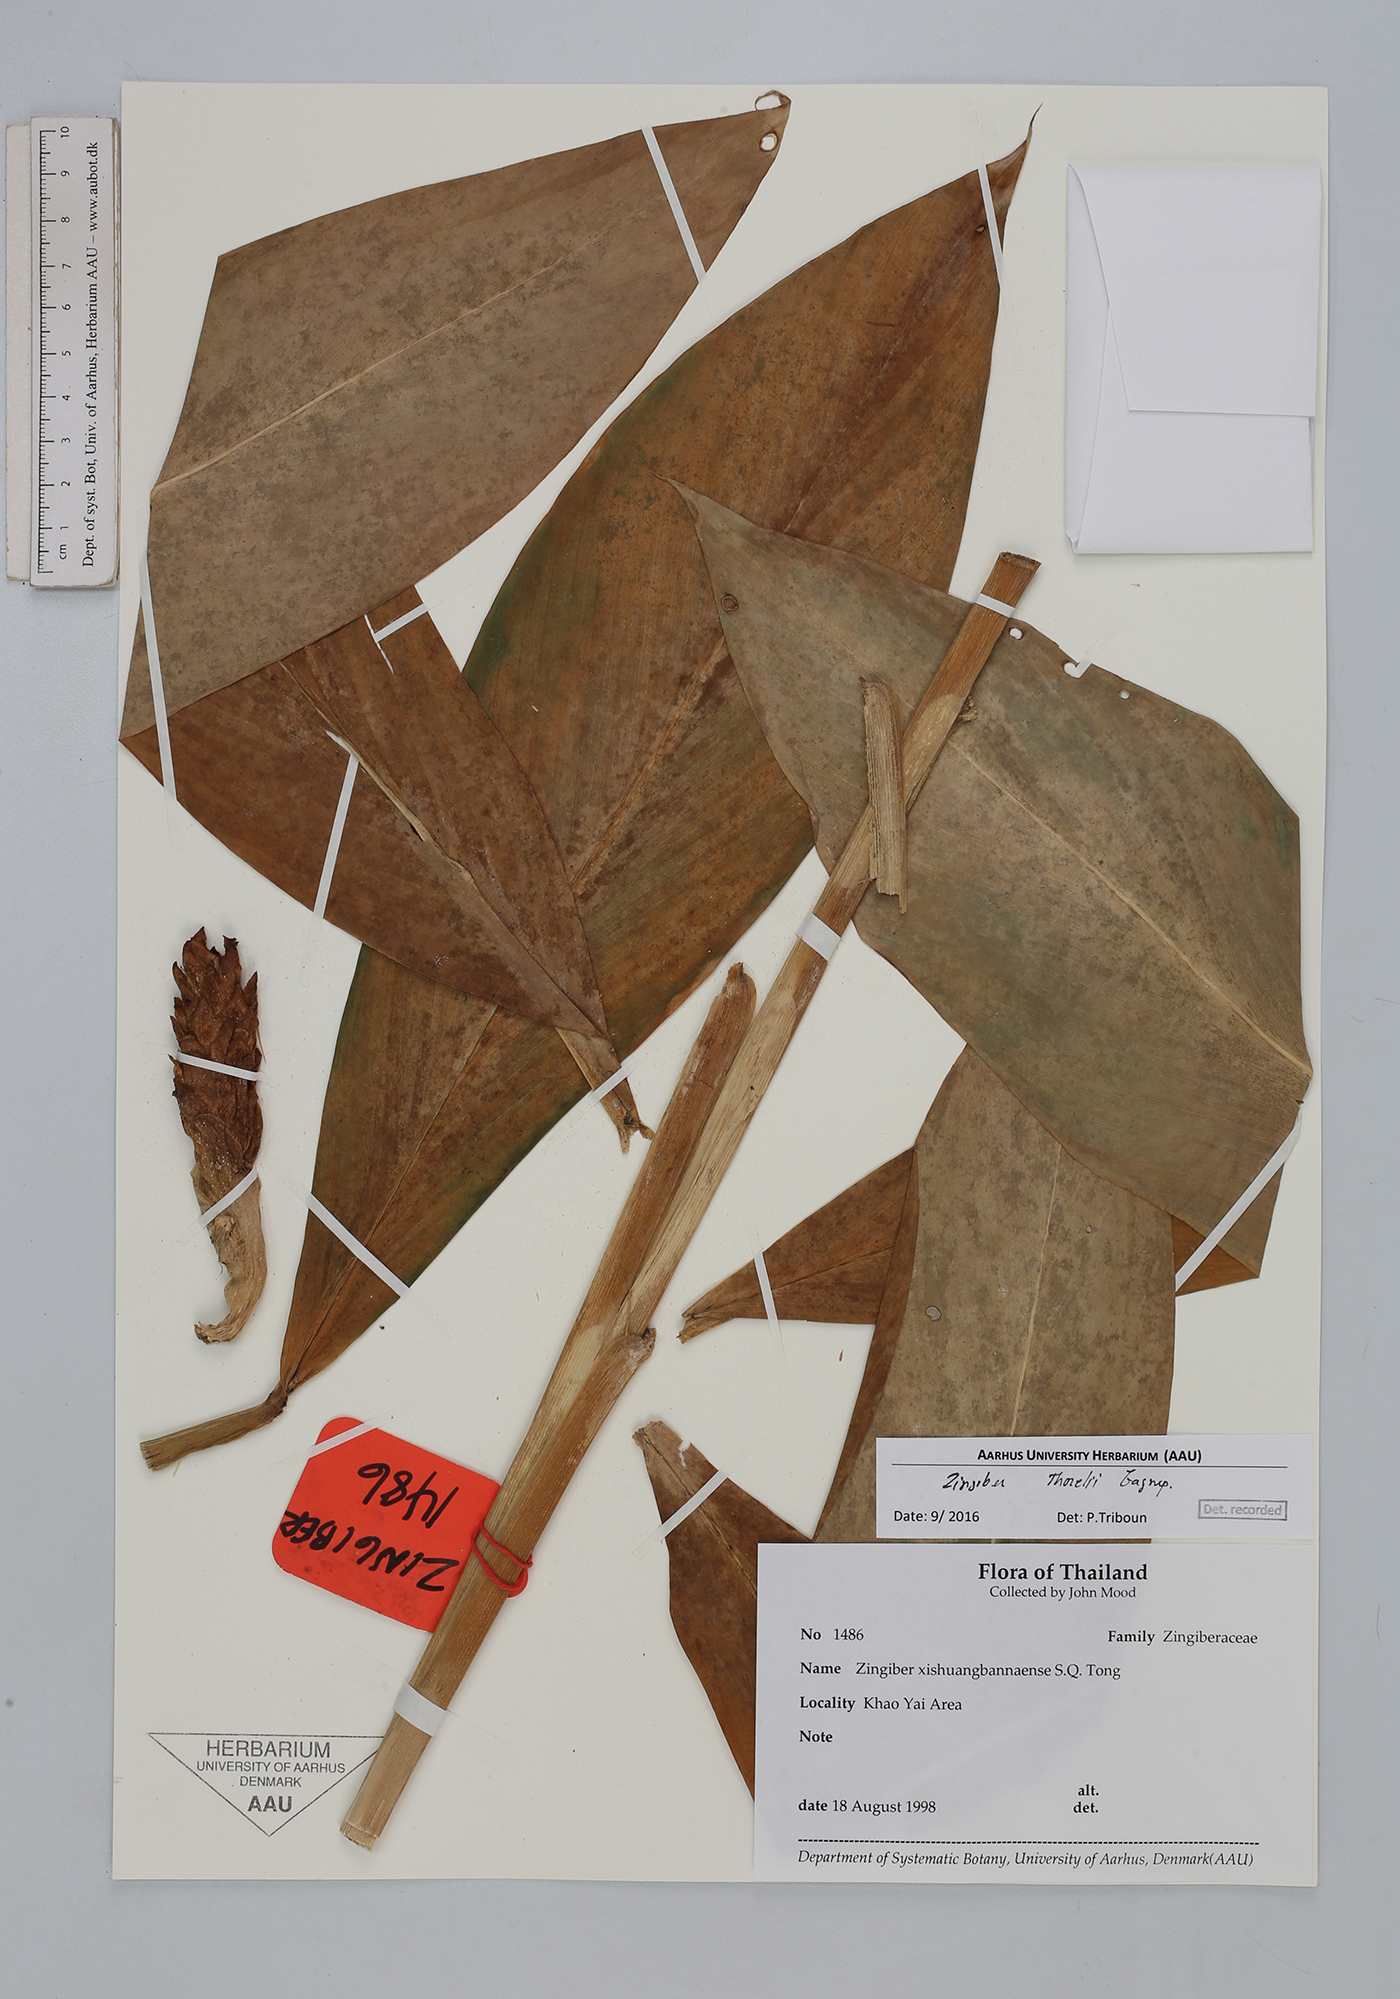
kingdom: Plantae
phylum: Tracheophyta
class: Liliopsida
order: Zingiberales
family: Zingiberaceae
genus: Zingiber
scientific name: Zingiber thorelii
